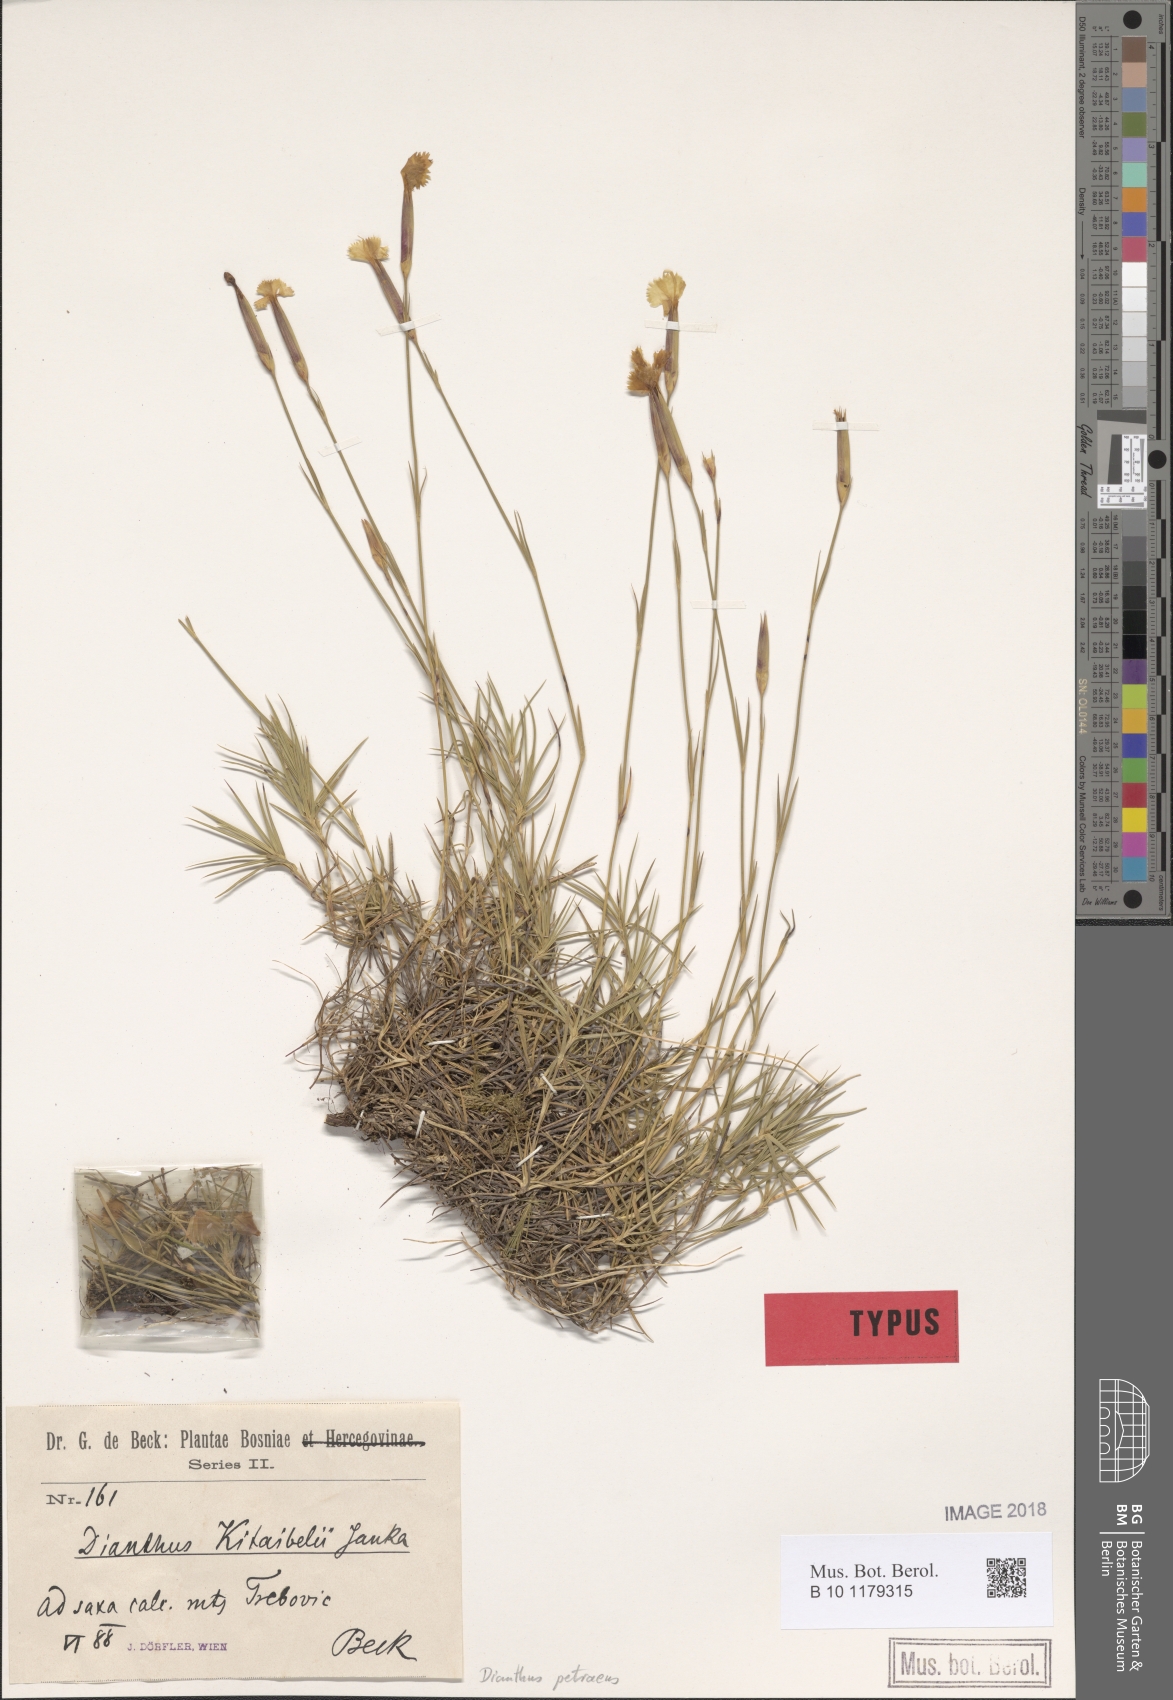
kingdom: Plantae
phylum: Tracheophyta
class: Magnoliopsida
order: Caryophyllales
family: Caryophyllaceae
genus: Dianthus
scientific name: Dianthus petraeus
